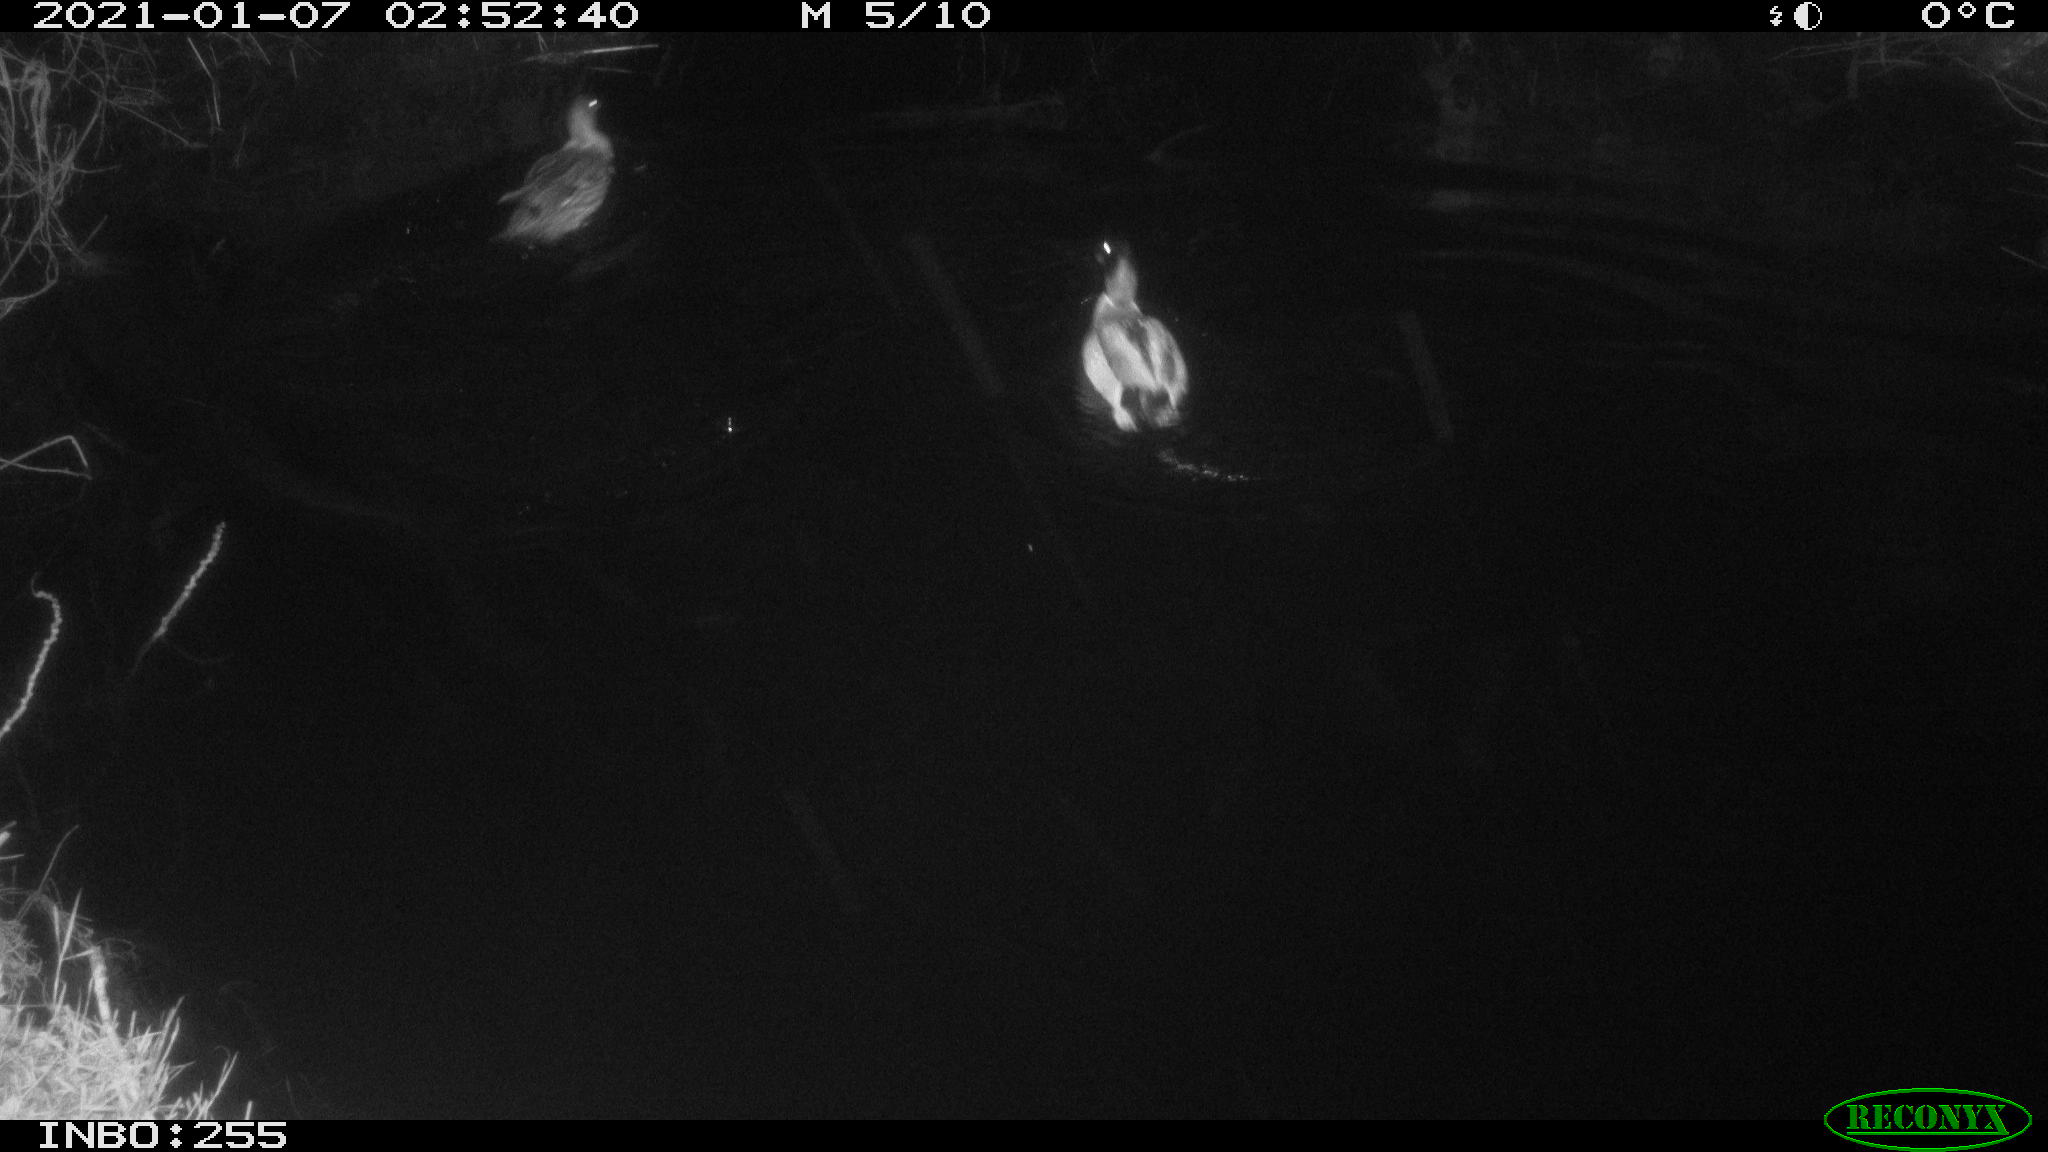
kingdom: Animalia
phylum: Chordata
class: Aves
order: Anseriformes
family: Anatidae
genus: Anas
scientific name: Anas platyrhynchos
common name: Mallard
